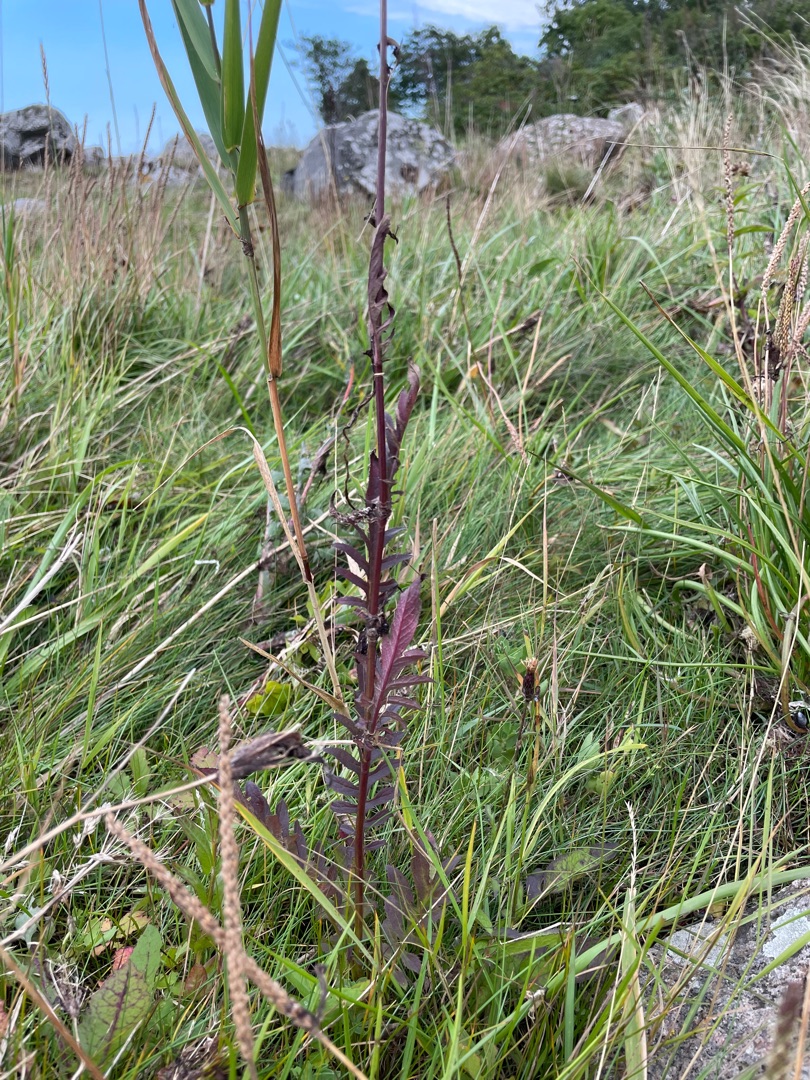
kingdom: Plantae
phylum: Tracheophyta
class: Magnoliopsida
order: Asterales
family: Asteraceae
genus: Serratula
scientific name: Serratula tinctoria
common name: Eng-skær
